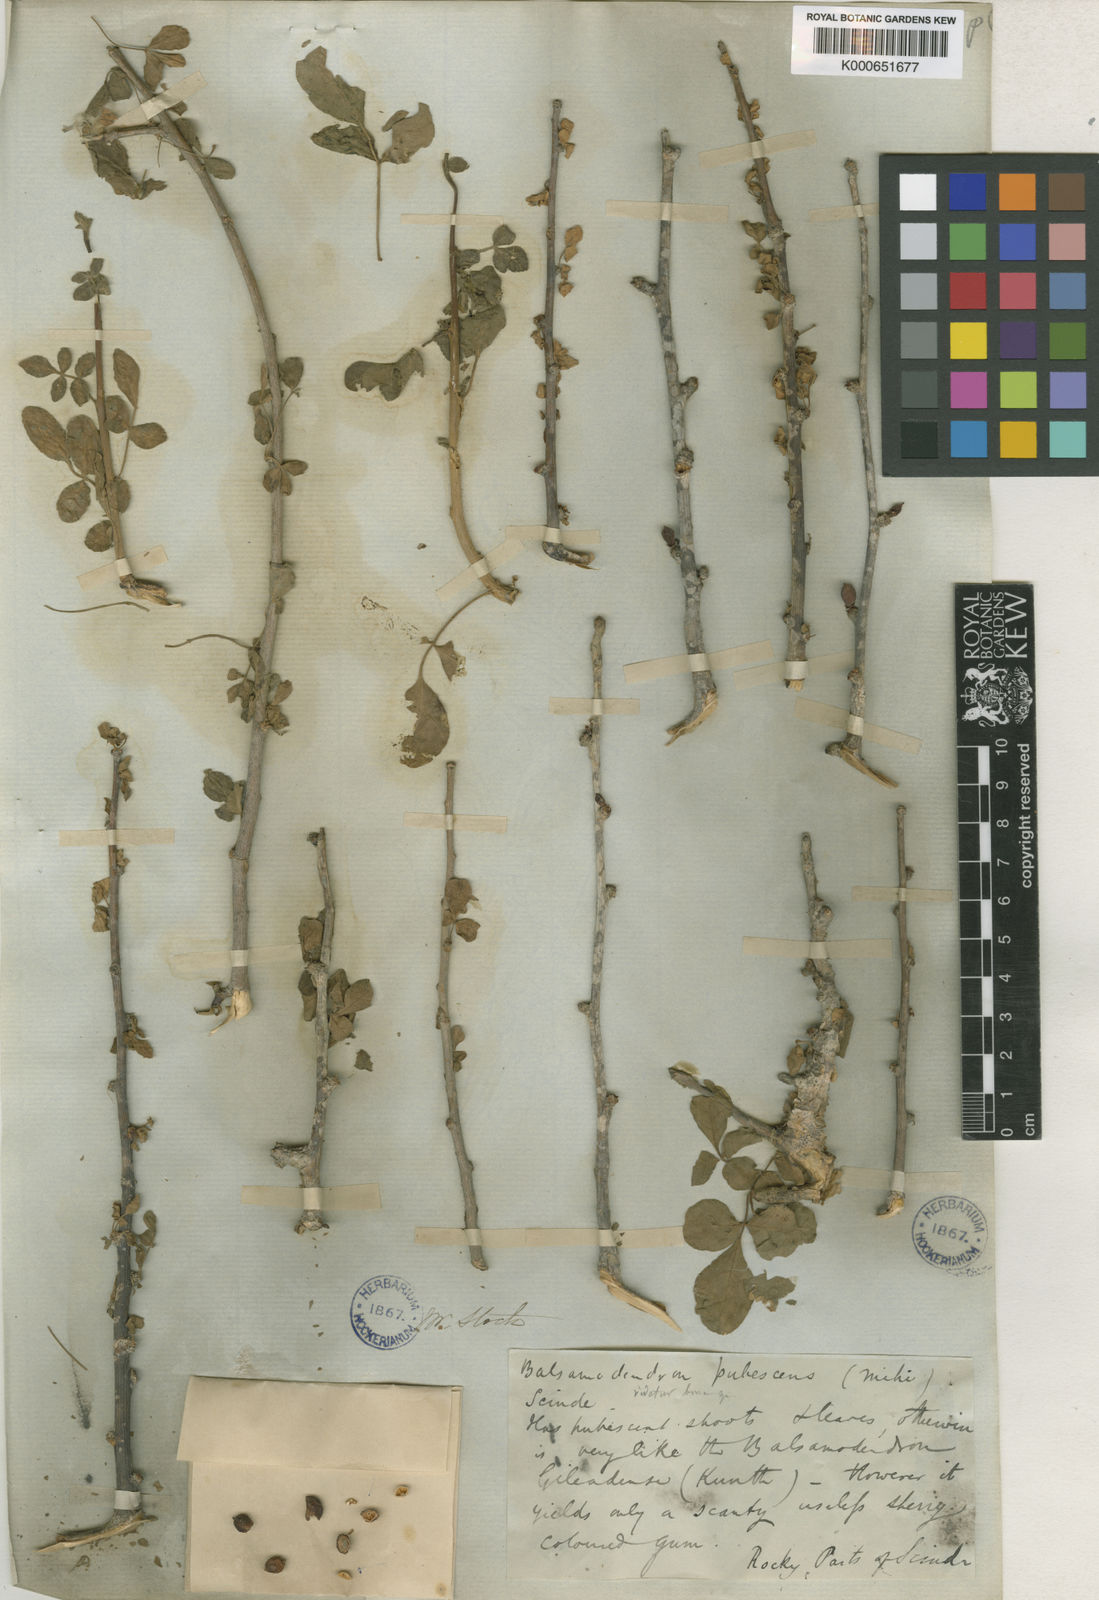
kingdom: Plantae
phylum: Tracheophyta
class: Magnoliopsida
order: Sapindales
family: Burseraceae
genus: Commiphora
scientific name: Commiphora gileadensis
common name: Balm-of-gilead
